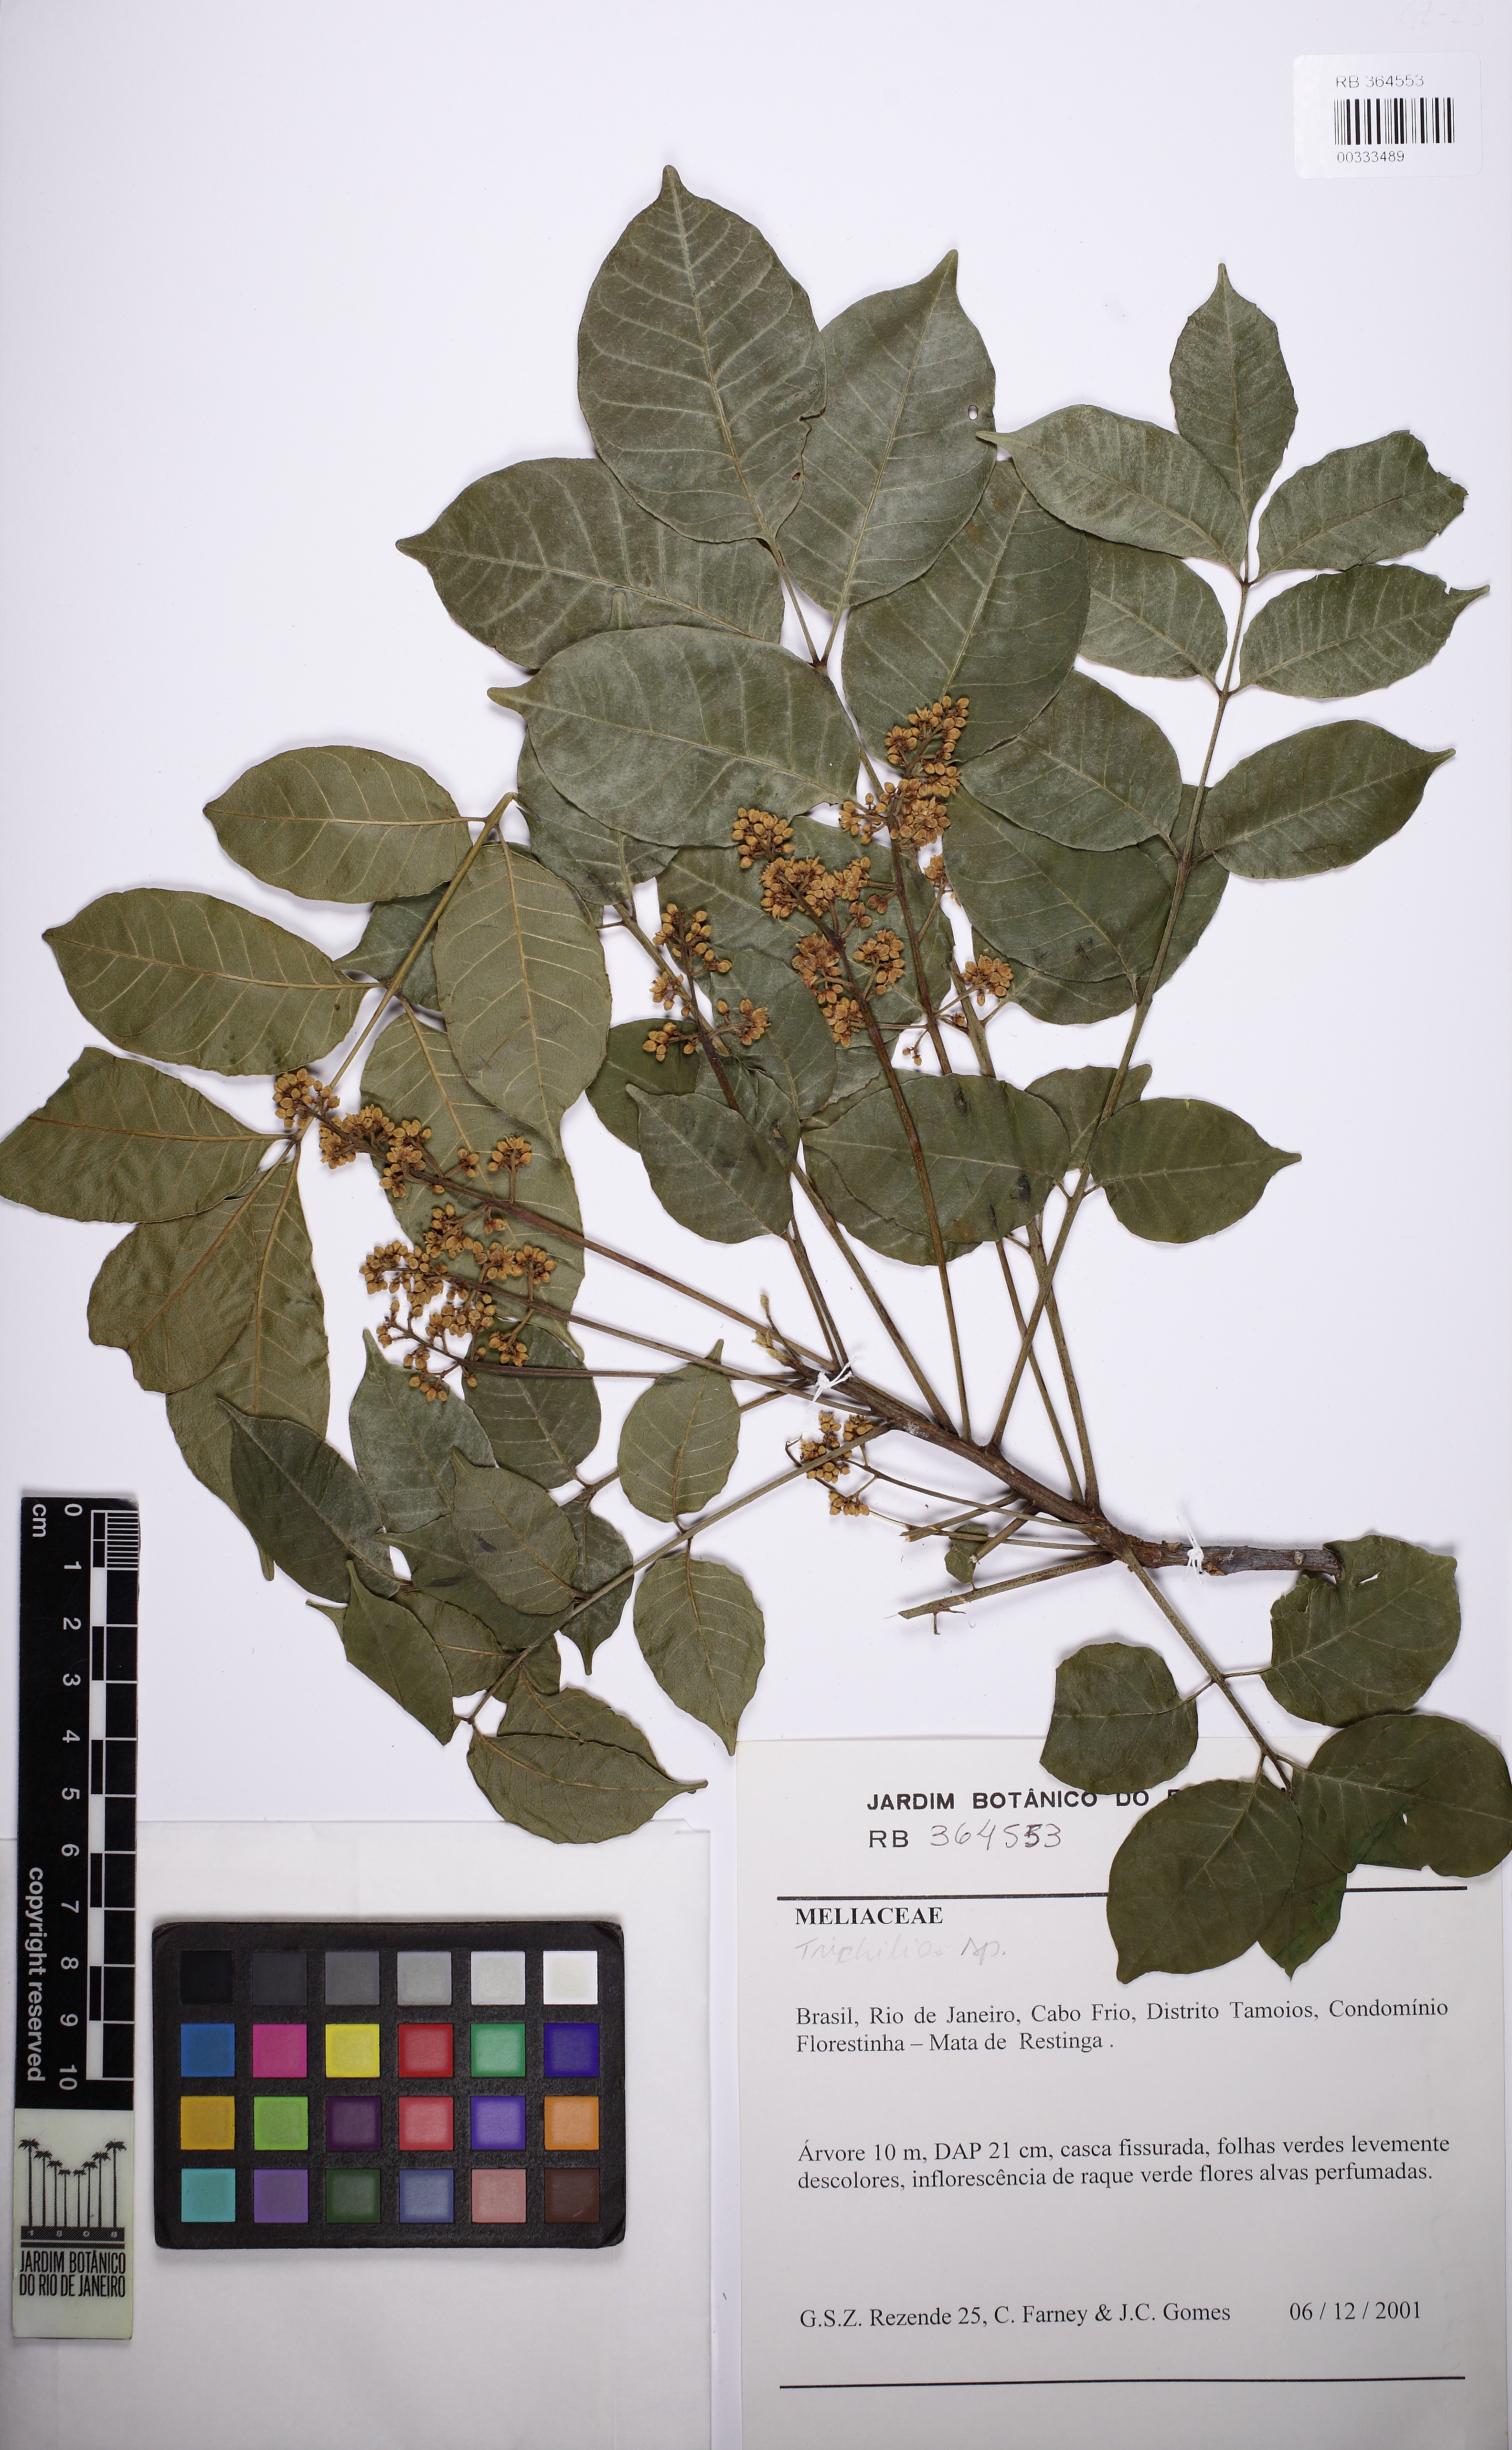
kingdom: Plantae
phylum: Tracheophyta
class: Magnoliopsida
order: Sapindales
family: Meliaceae
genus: Trichilia
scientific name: Trichilia hirta
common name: Red-cedar
